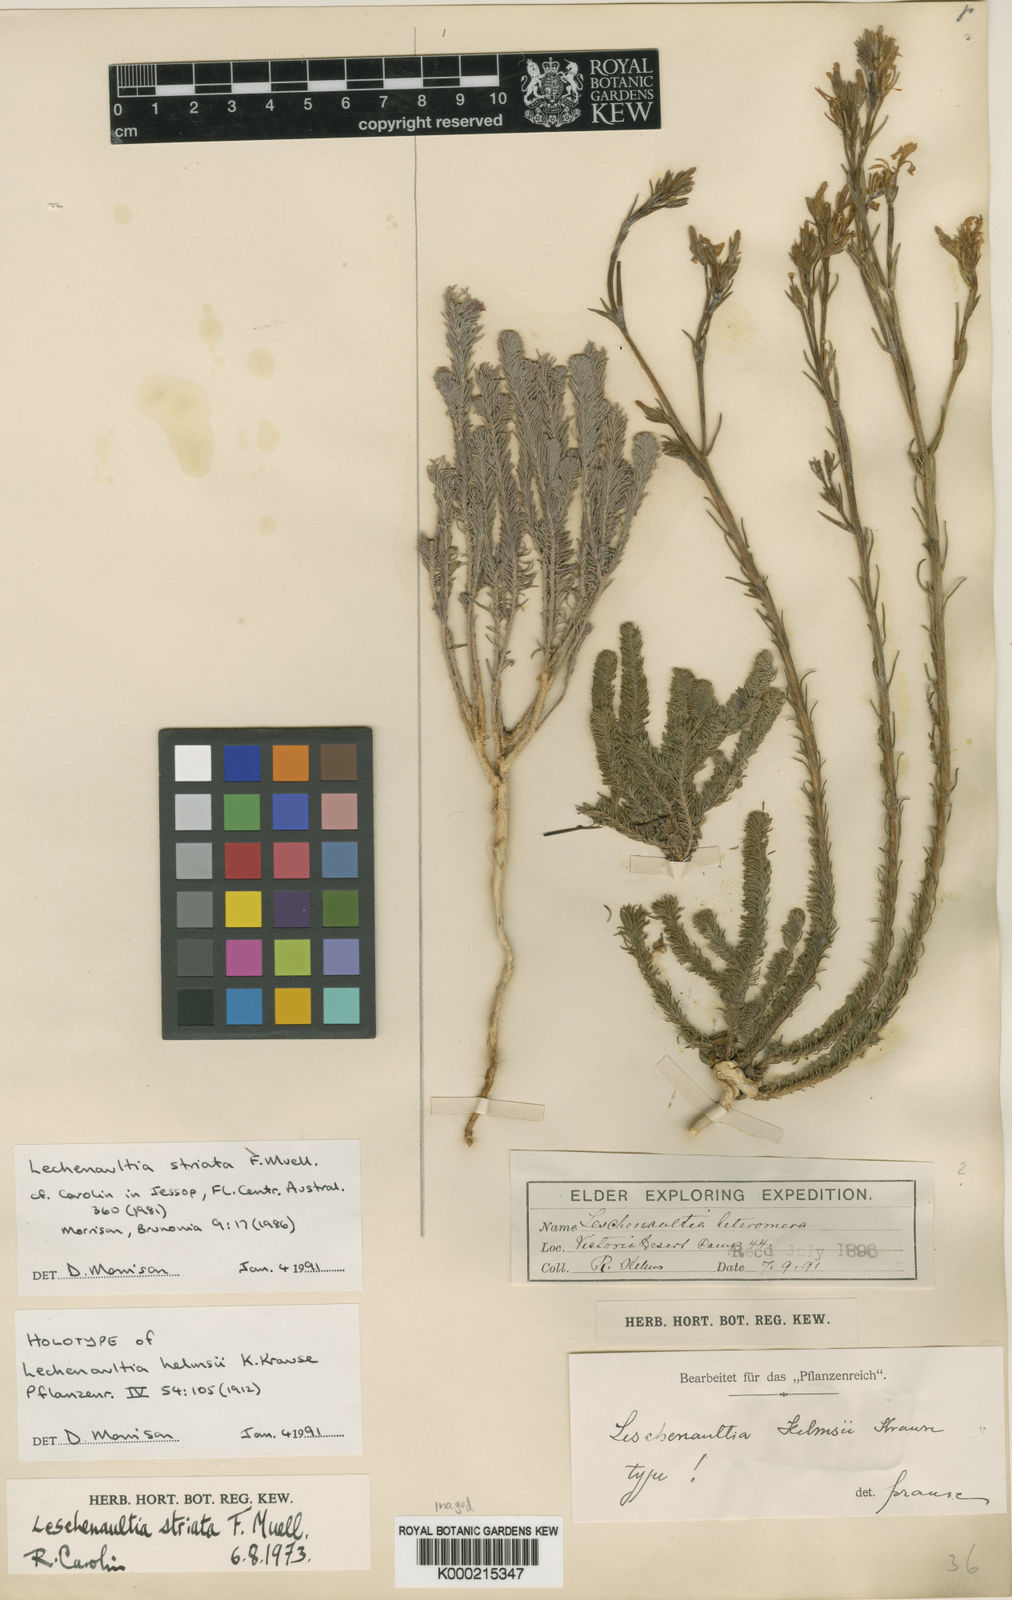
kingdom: Plantae
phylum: Tracheophyta
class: Magnoliopsida
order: Asterales
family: Goodeniaceae
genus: Leschenaultia
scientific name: Leschenaultia striata
